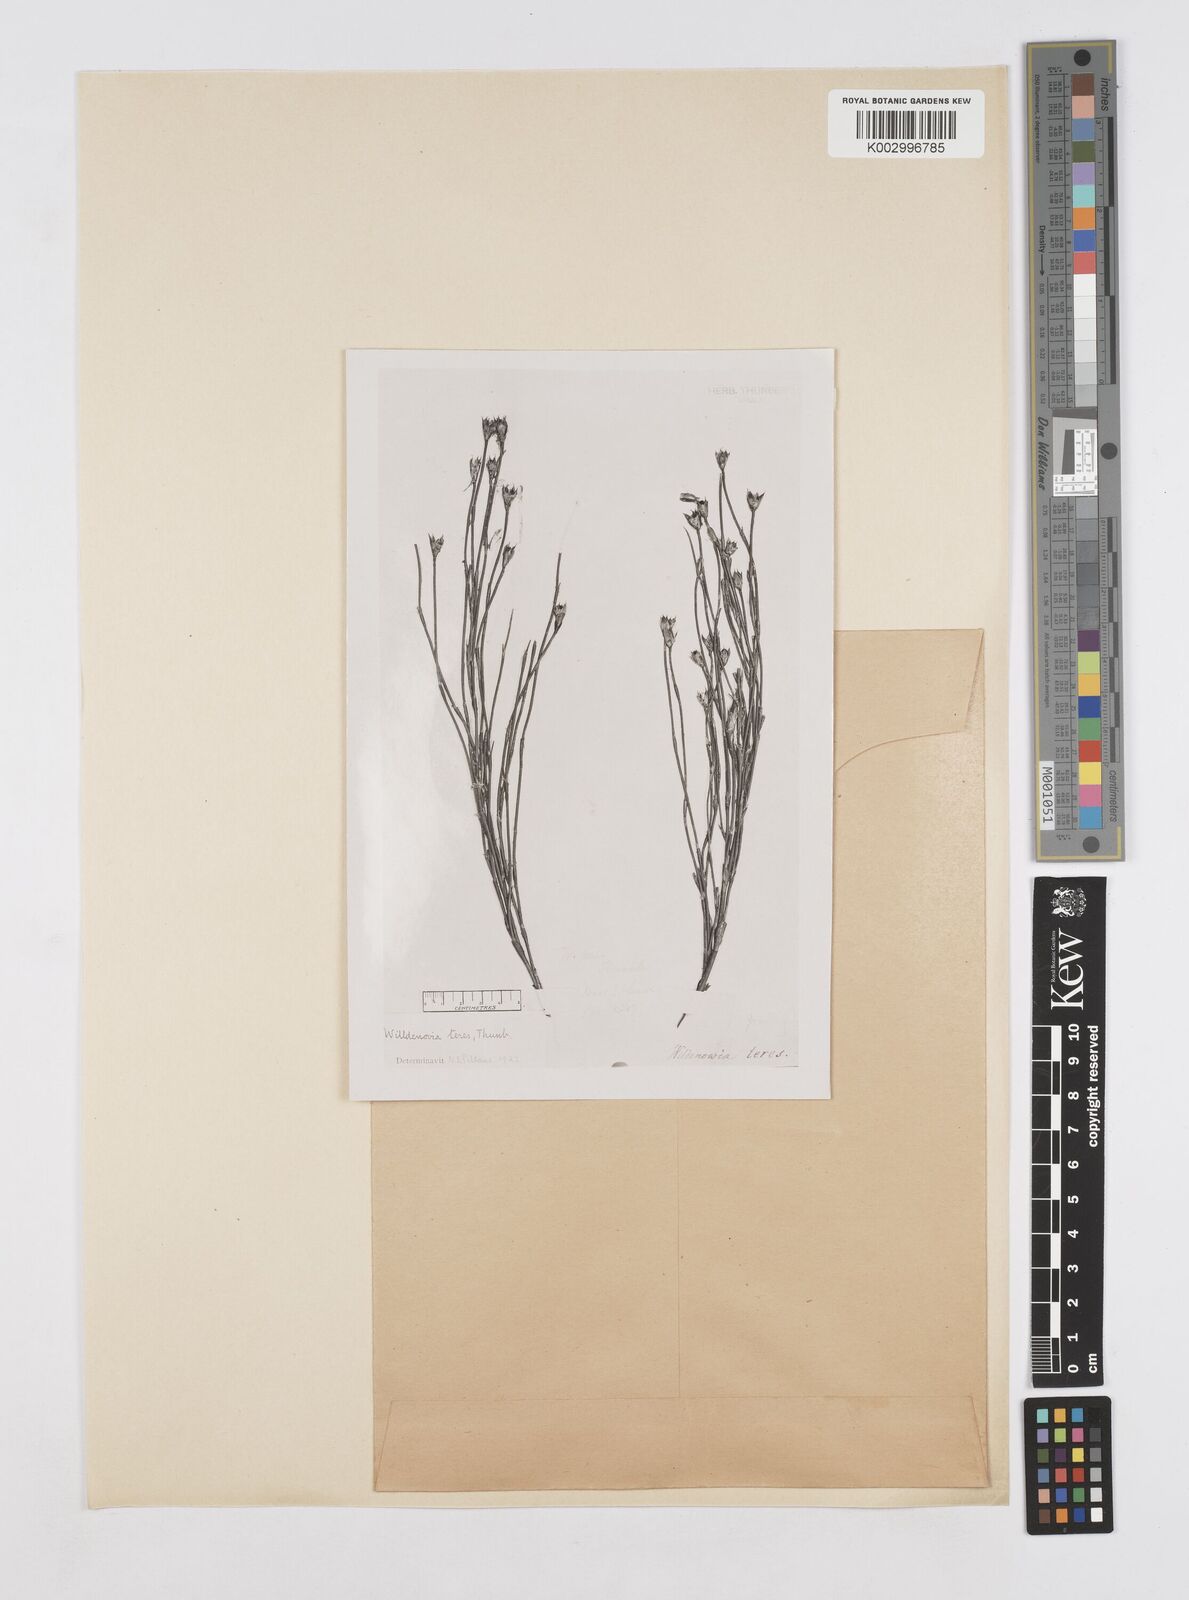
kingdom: Plantae
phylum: Tracheophyta
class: Liliopsida
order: Poales
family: Restionaceae
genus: Willdenowia
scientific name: Willdenowia teres
